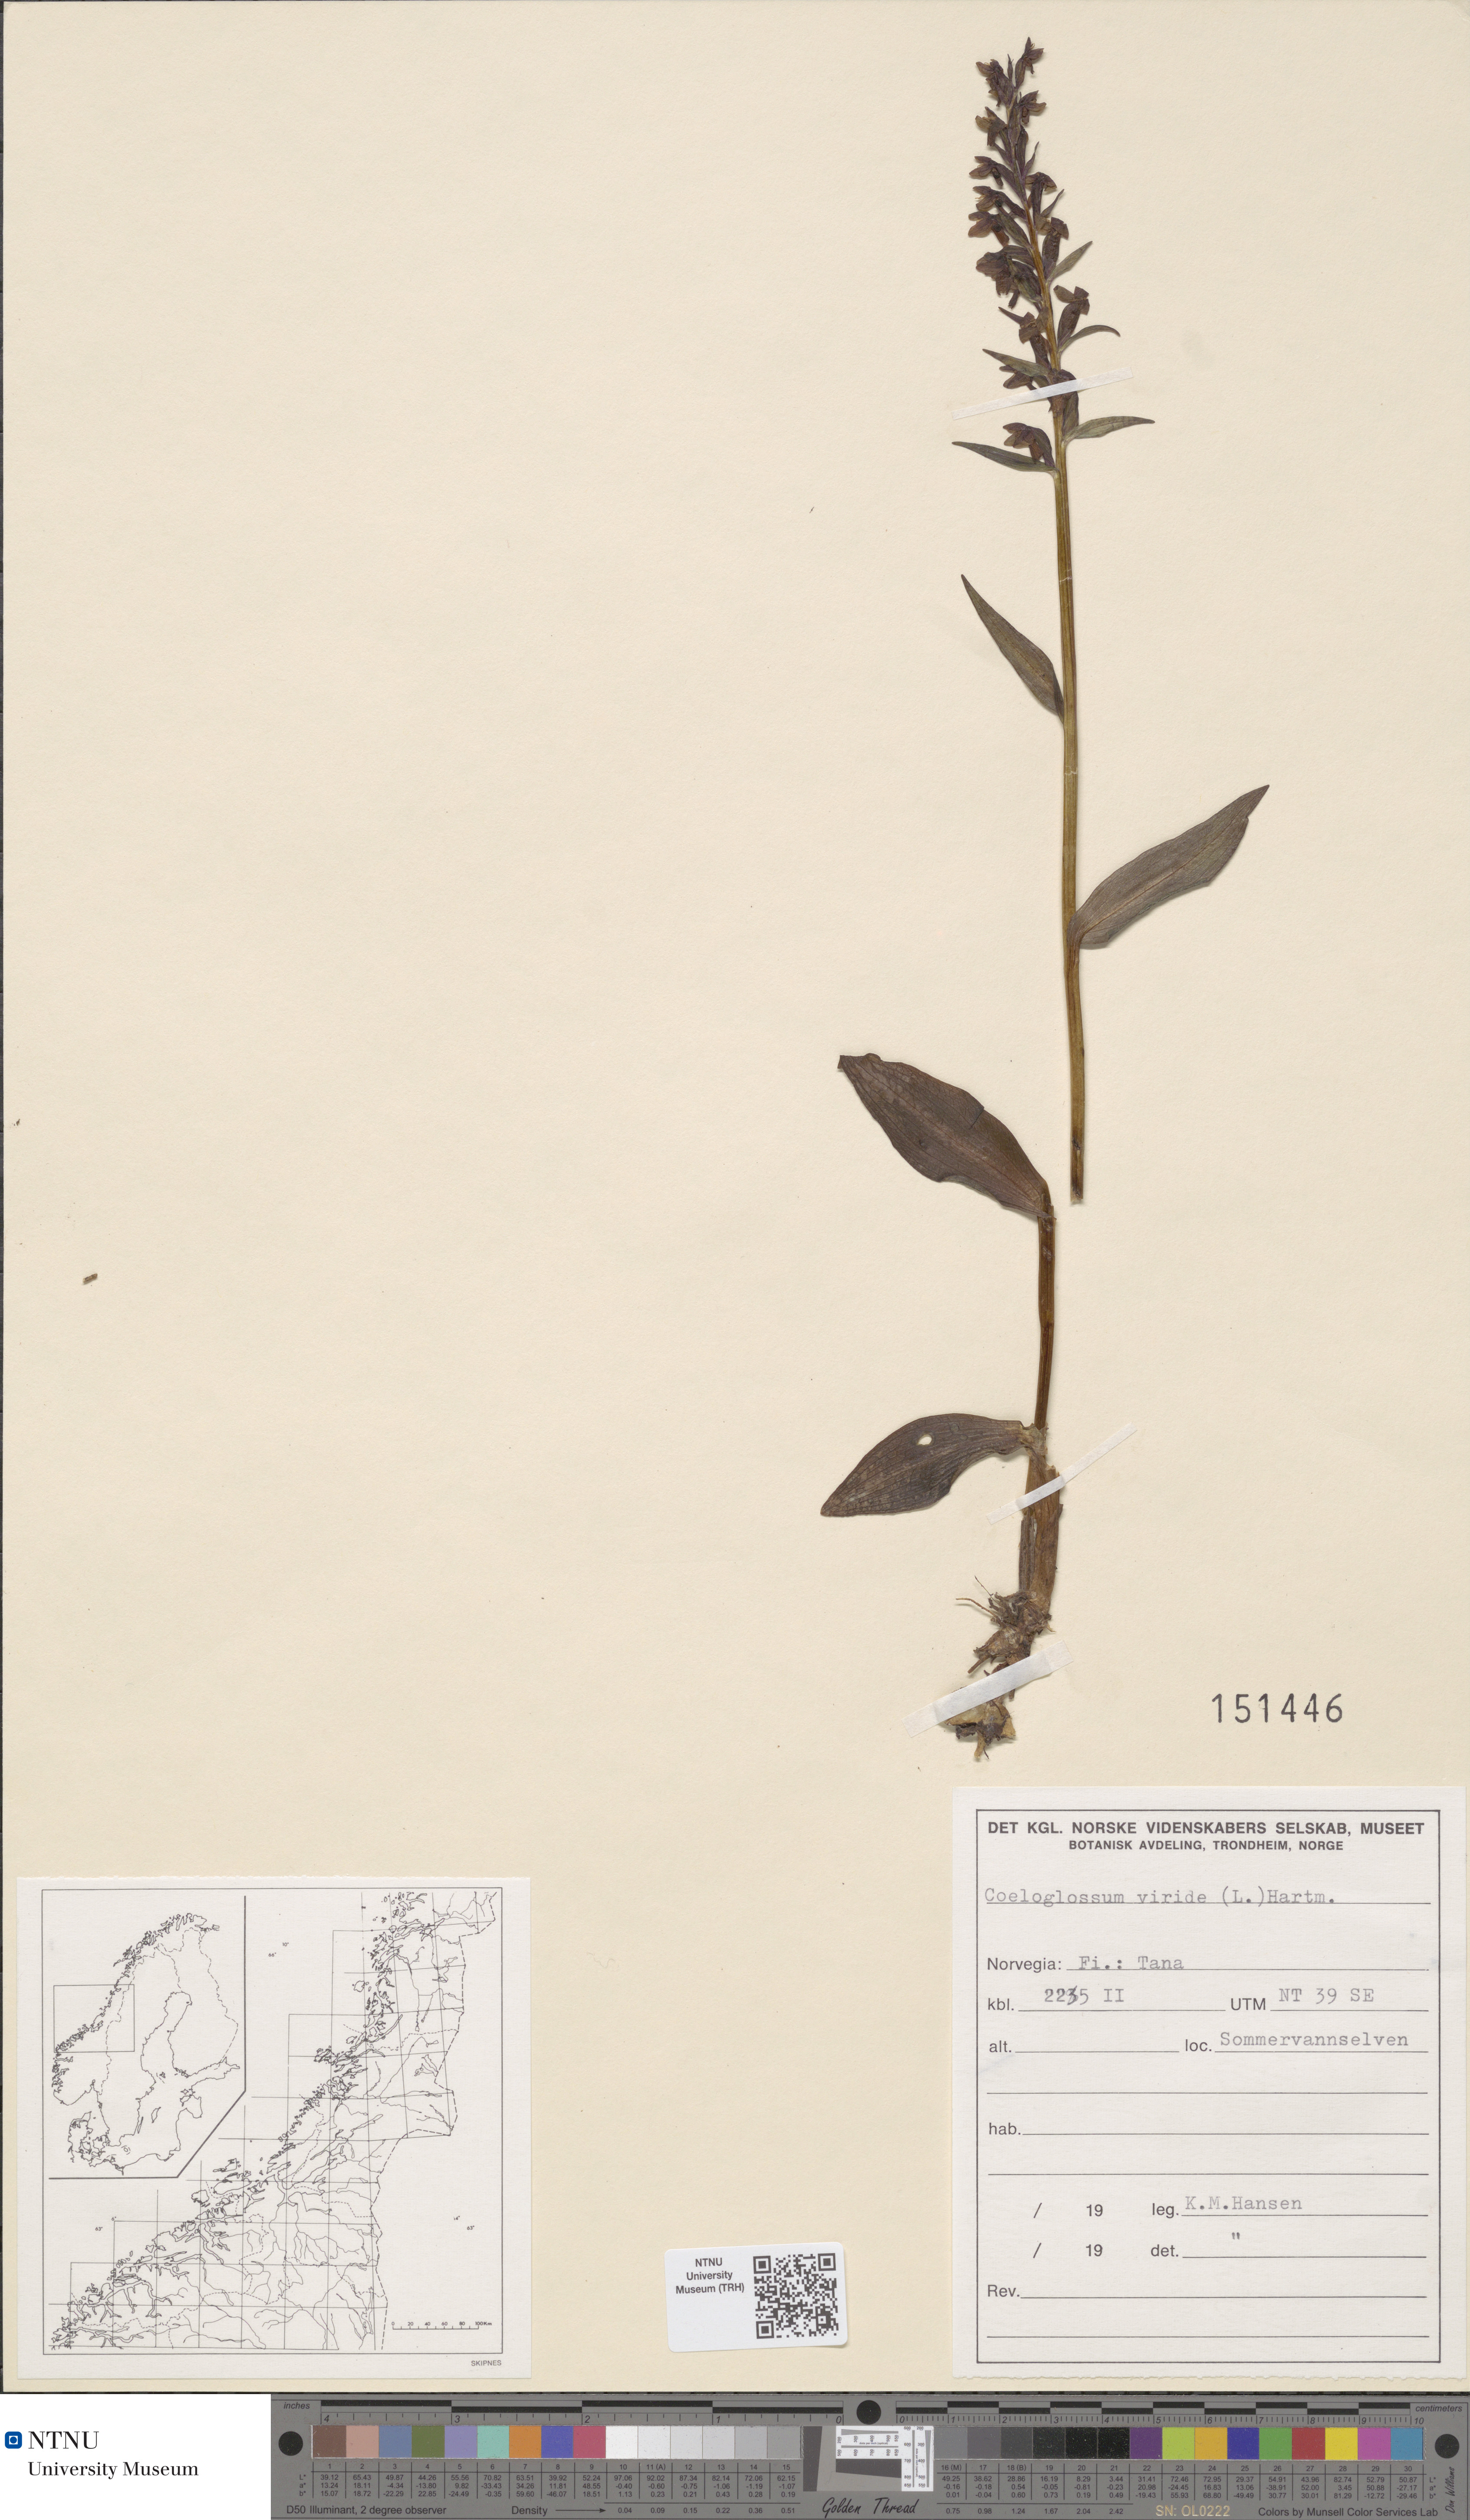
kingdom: Plantae
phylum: Tracheophyta
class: Liliopsida
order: Asparagales
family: Orchidaceae
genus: Dactylorhiza
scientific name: Dactylorhiza viridis
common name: Longbract frog orchid
